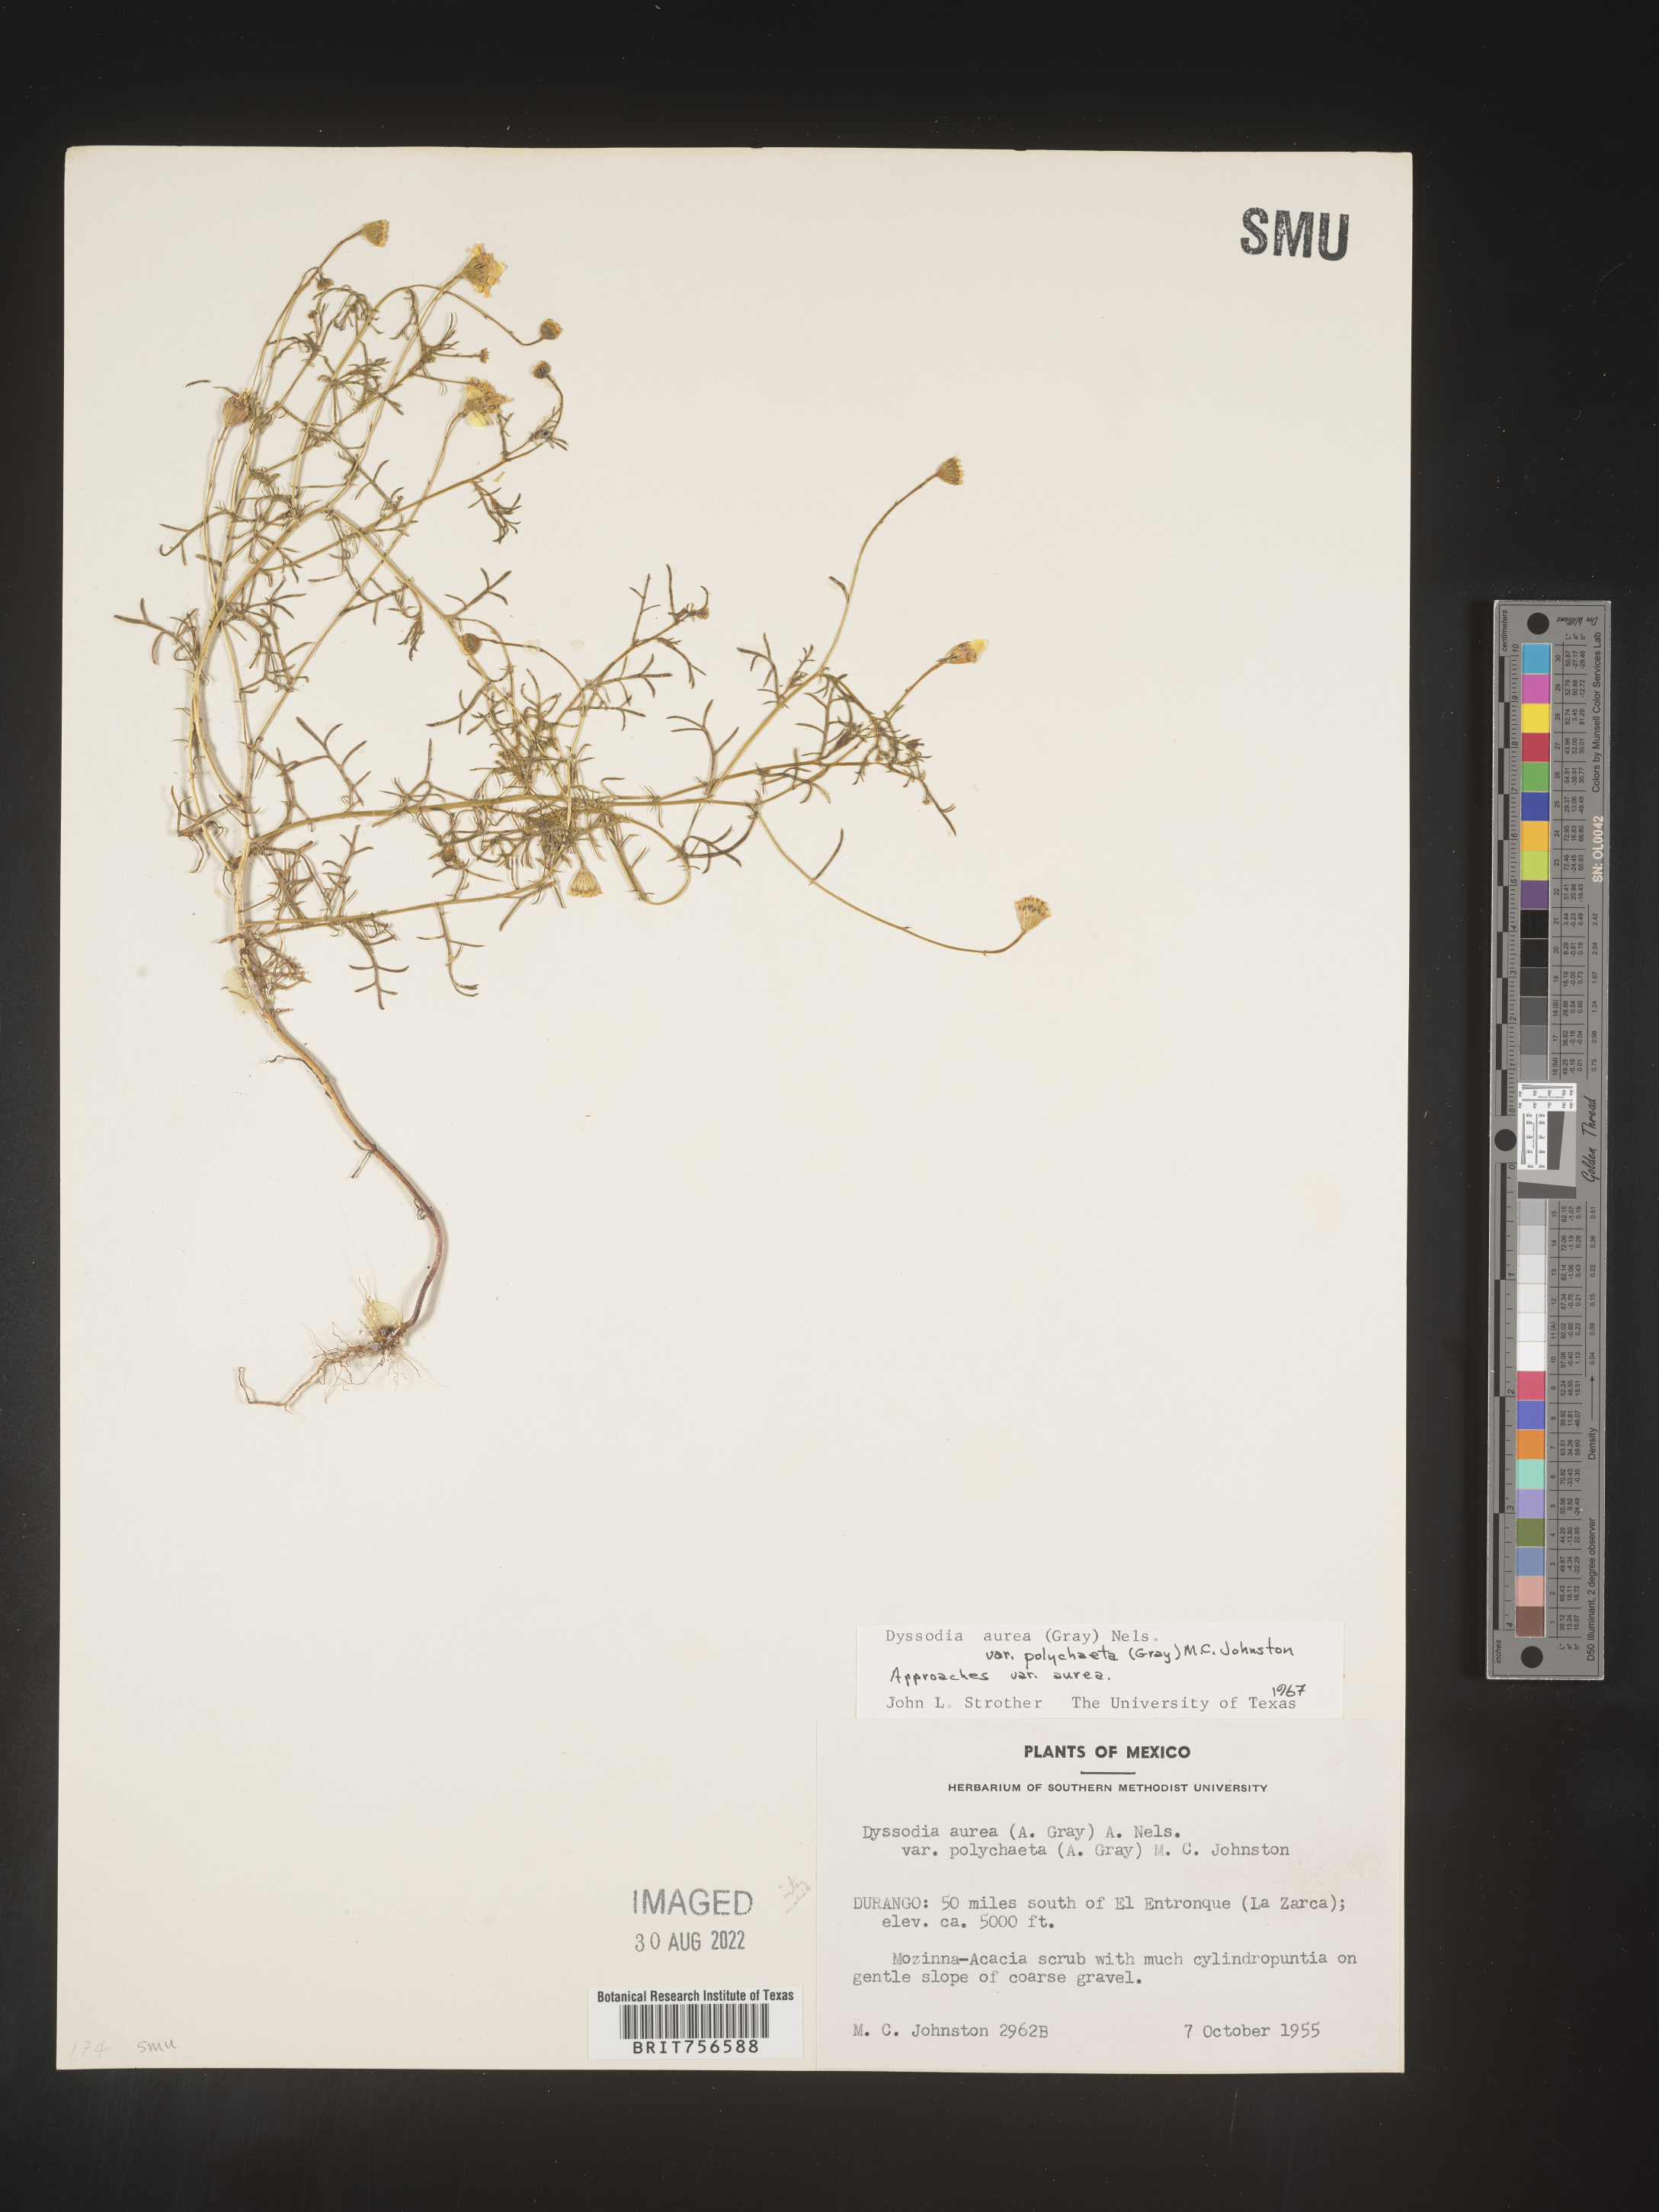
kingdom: Plantae
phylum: Tracheophyta
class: Magnoliopsida
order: Asterales
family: Asteraceae
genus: Thymophylla
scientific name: Thymophylla aurea
